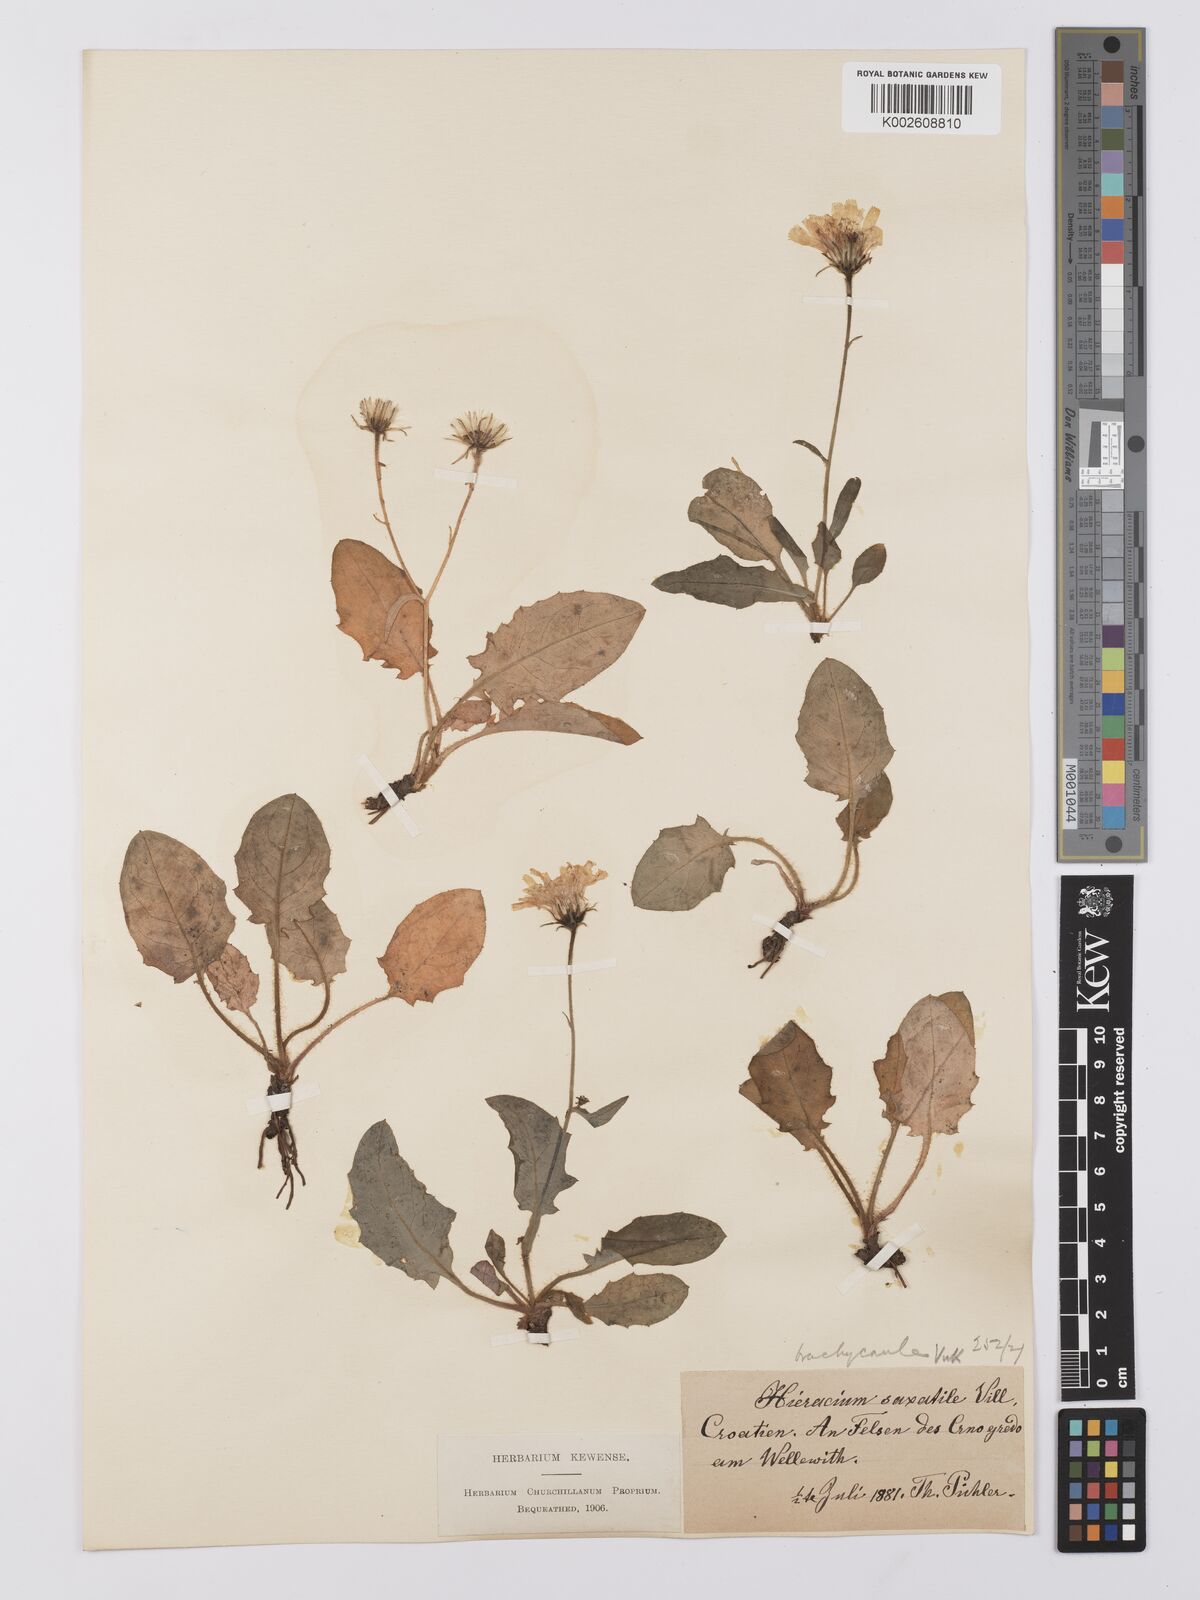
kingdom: Plantae
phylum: Tracheophyta
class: Magnoliopsida
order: Asterales
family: Asteraceae
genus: Hieracium
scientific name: Hieracium humile
